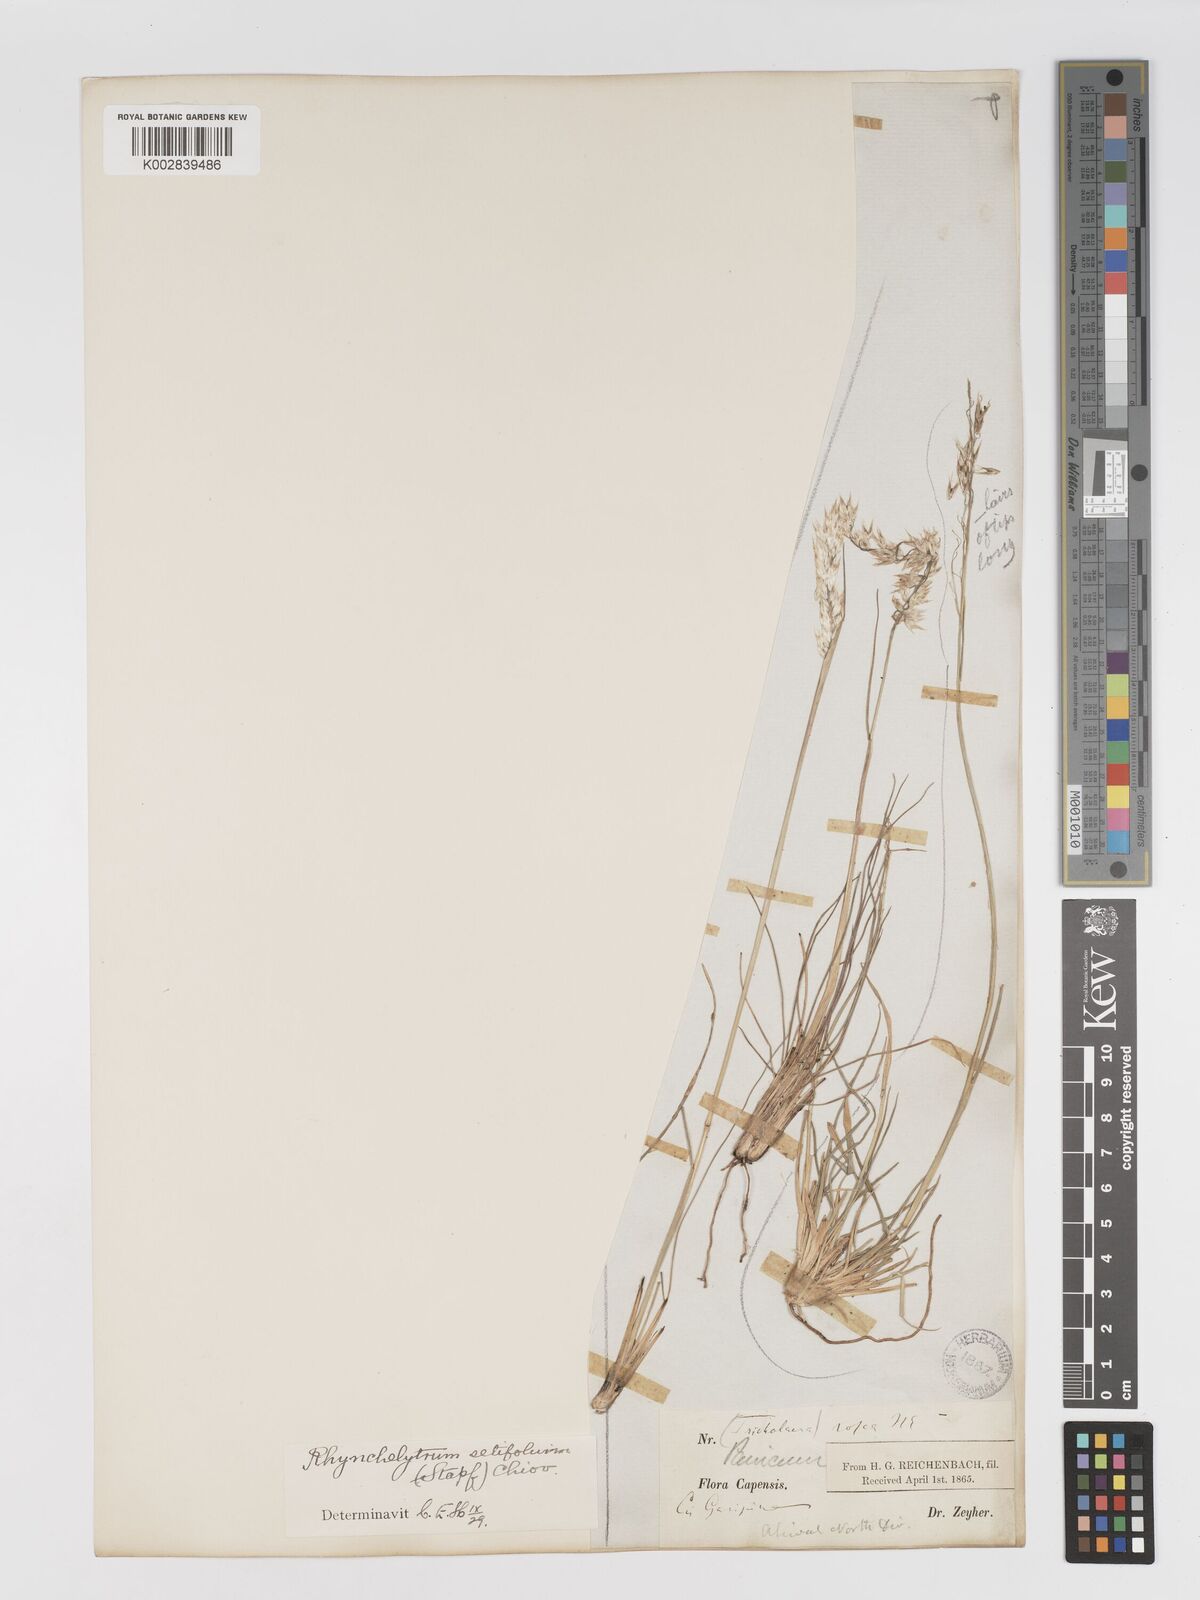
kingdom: Plantae
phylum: Tracheophyta
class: Liliopsida
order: Poales
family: Poaceae
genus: Melinis
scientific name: Melinis nerviglumis
